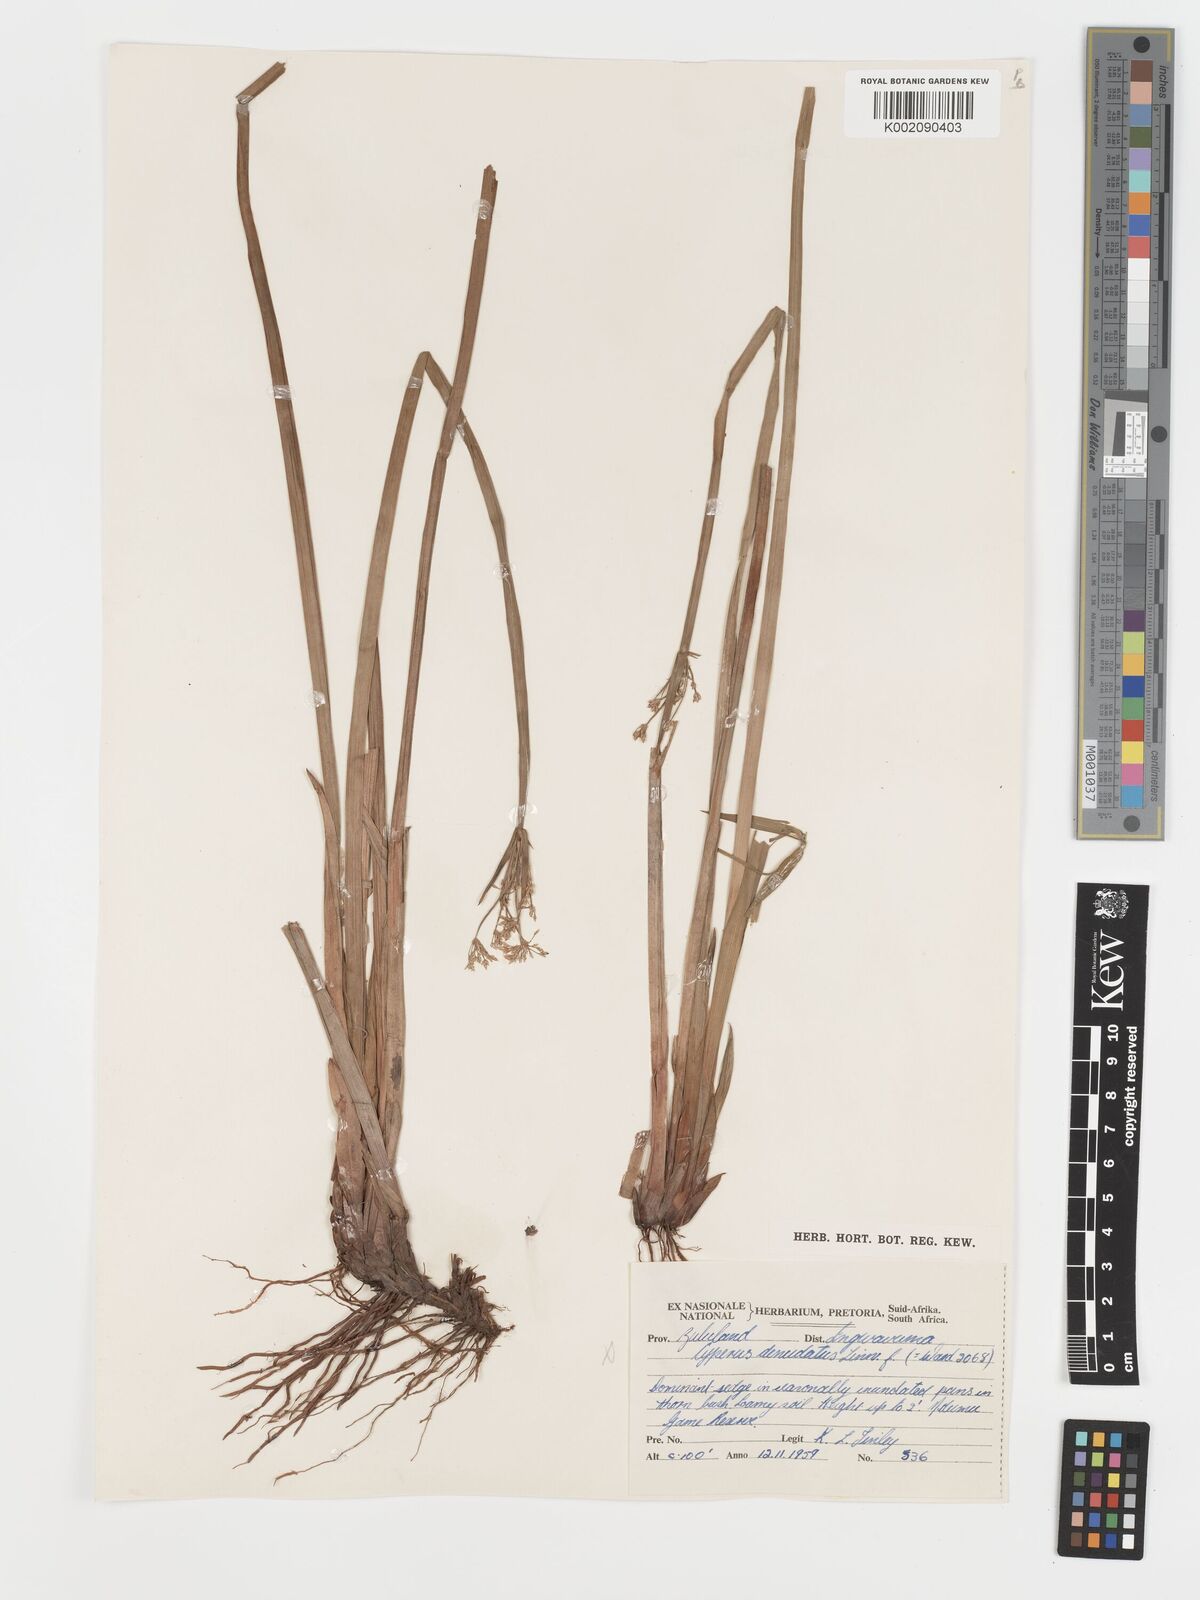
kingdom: Plantae
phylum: Tracheophyta
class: Liliopsida
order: Poales
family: Cyperaceae
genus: Cyperus
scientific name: Cyperus platycaulis
